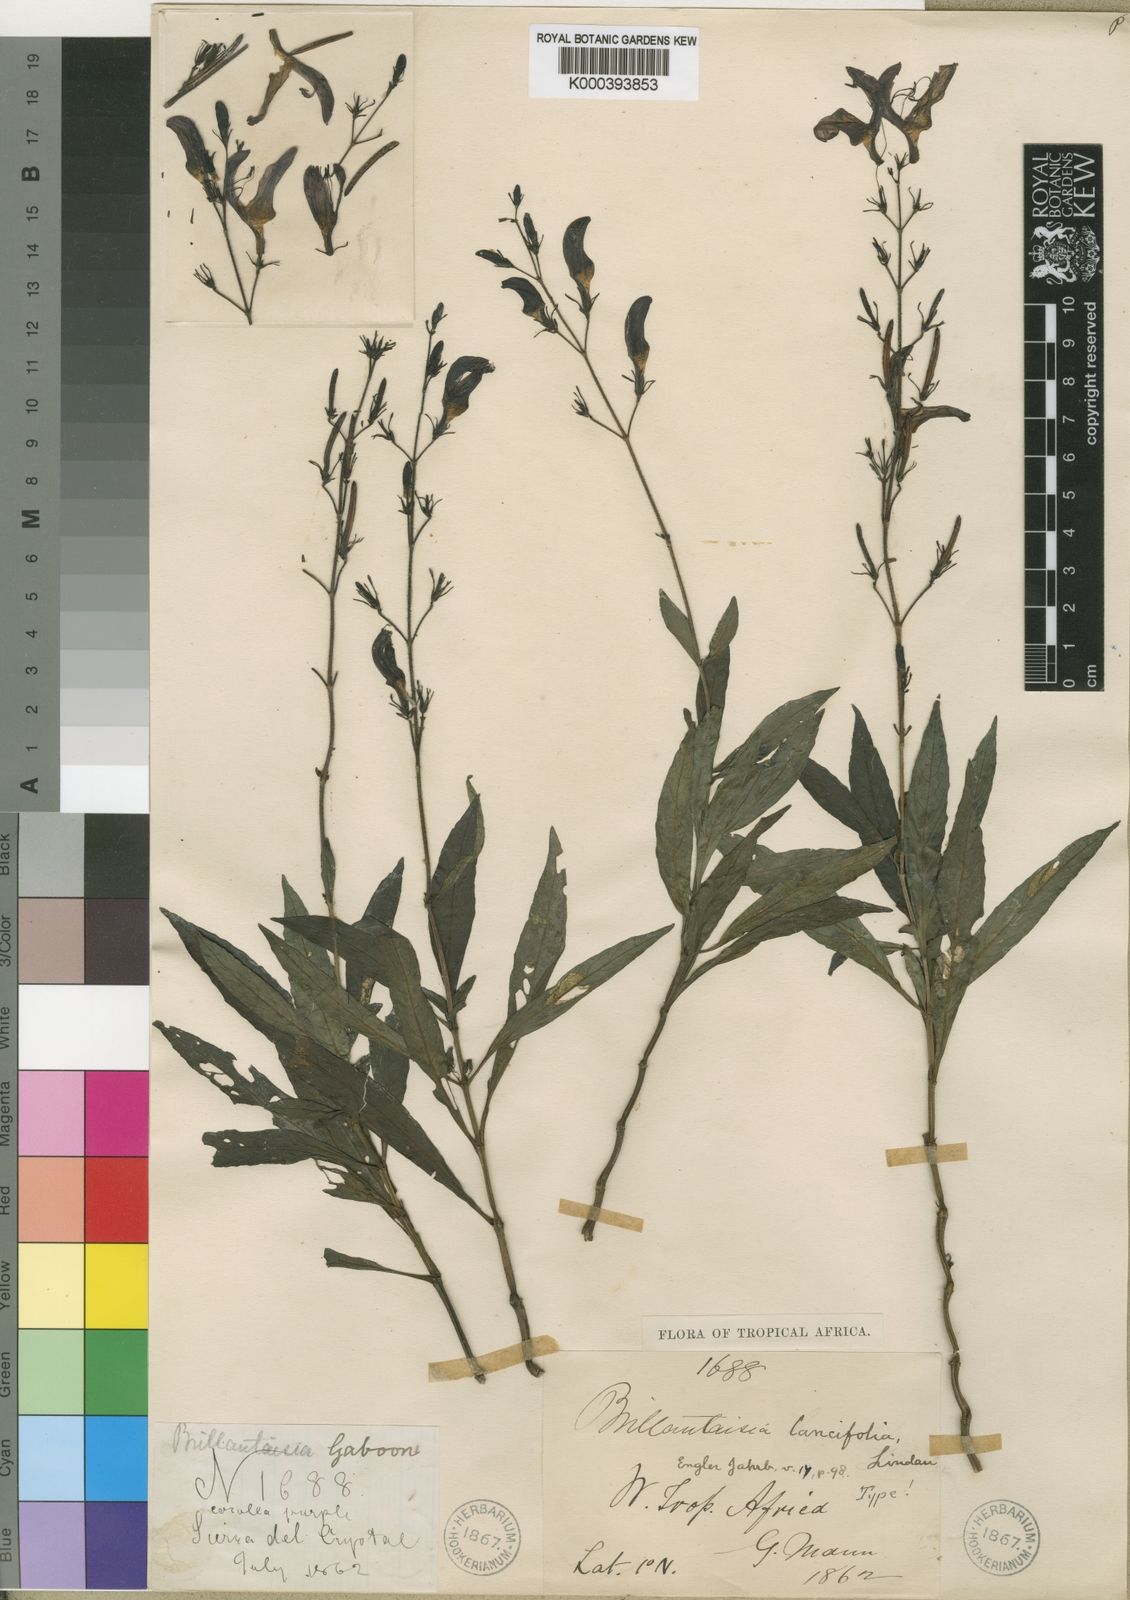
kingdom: Plantae
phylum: Tracheophyta
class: Magnoliopsida
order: Lamiales
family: Acanthaceae
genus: Brillantaisia
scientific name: Brillantaisia lancifolia
